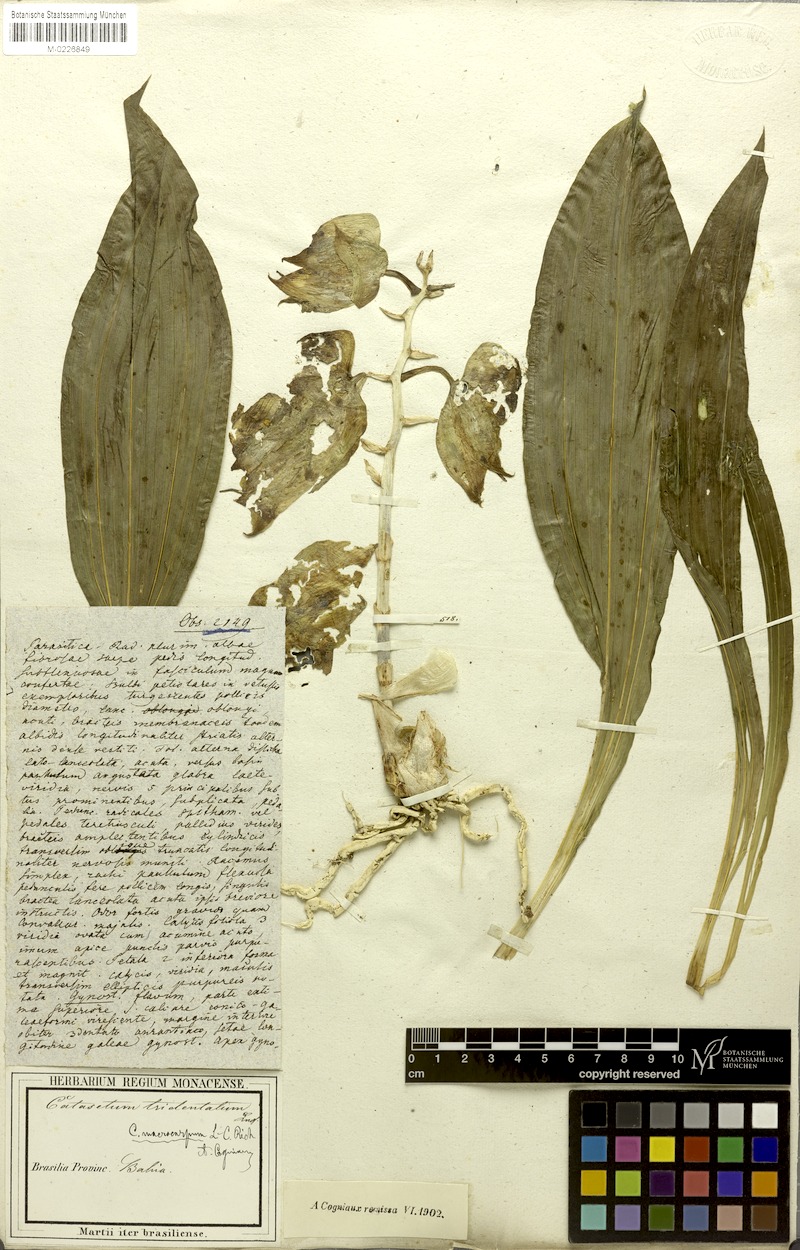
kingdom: Plantae
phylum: Tracheophyta
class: Liliopsida
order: Asparagales
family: Orchidaceae
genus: Catasetum
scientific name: Catasetum macrocarpum
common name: Jumping orchid
